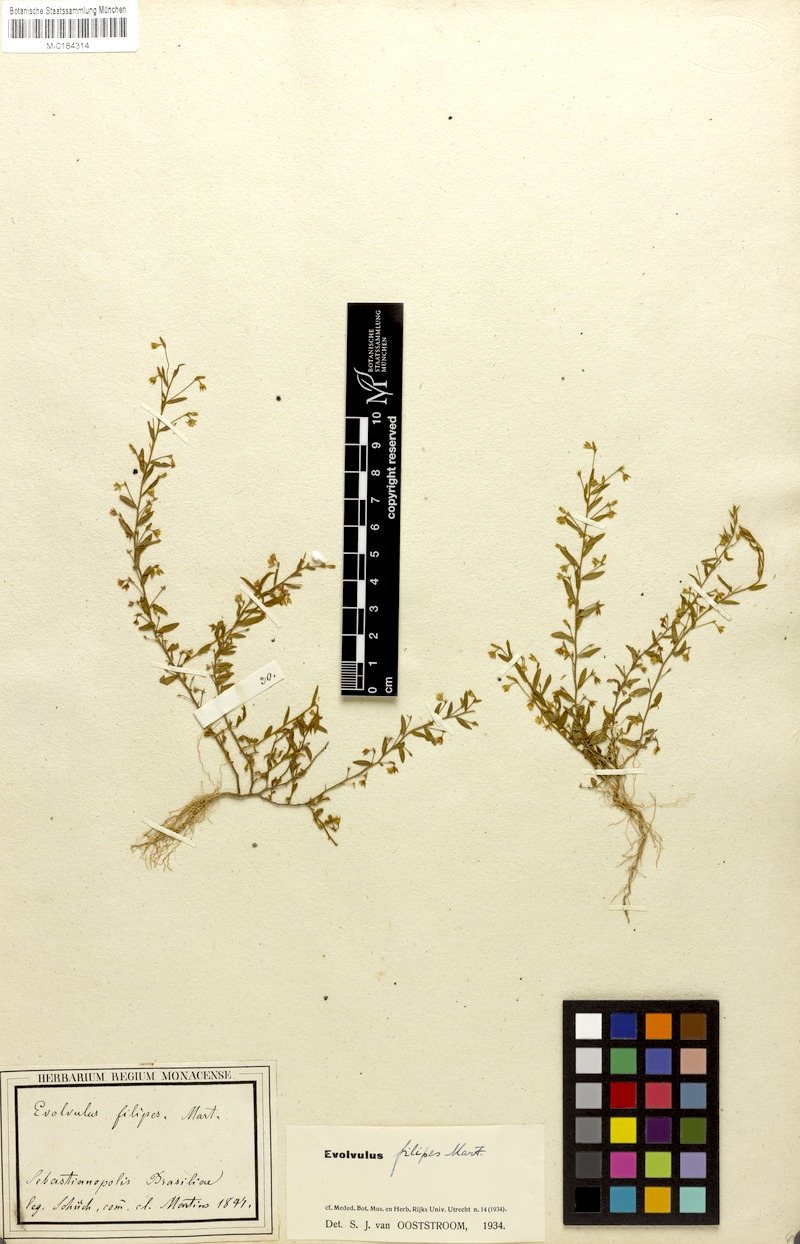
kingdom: Plantae
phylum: Tracheophyta
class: Magnoliopsida
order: Solanales
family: Convolvulaceae
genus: Evolvulus
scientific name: Evolvulus filipes
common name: Maryland dwarf morning-glory
